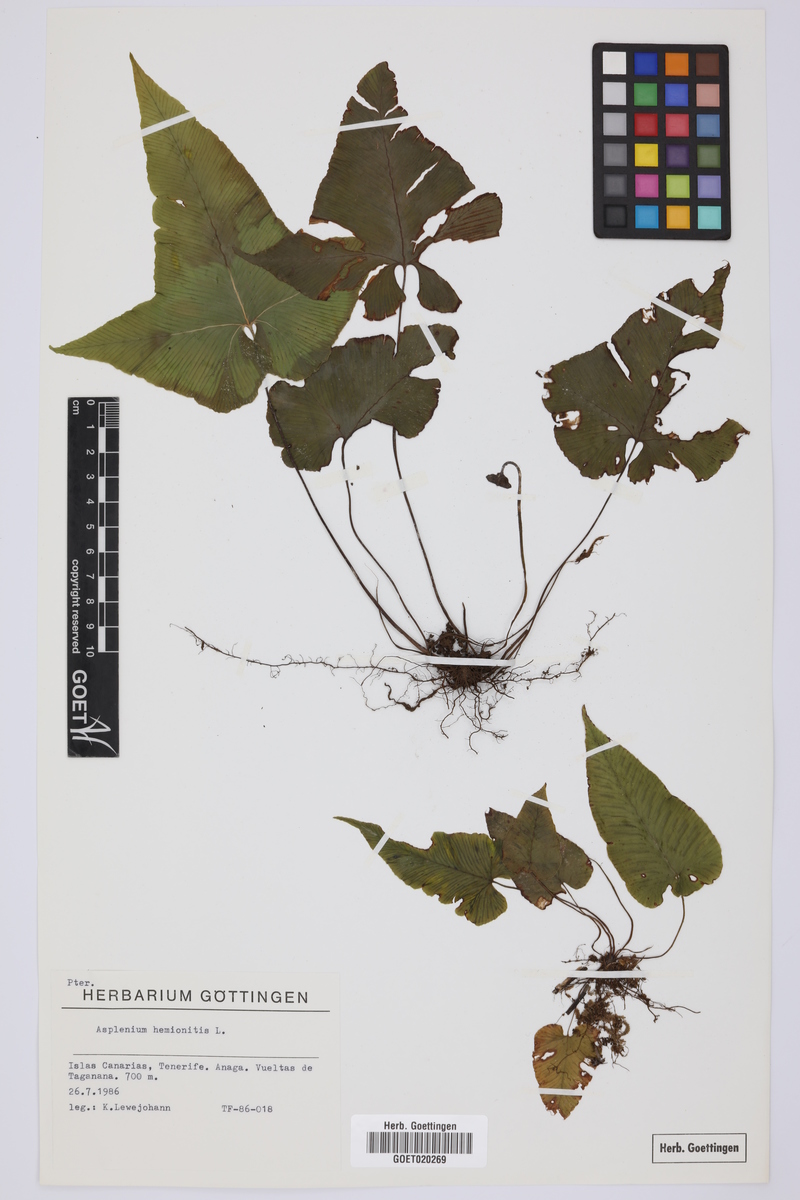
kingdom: Plantae
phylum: Tracheophyta
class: Polypodiopsida
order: Polypodiales
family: Aspleniaceae
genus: Asplenium
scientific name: Asplenium hemionitis
